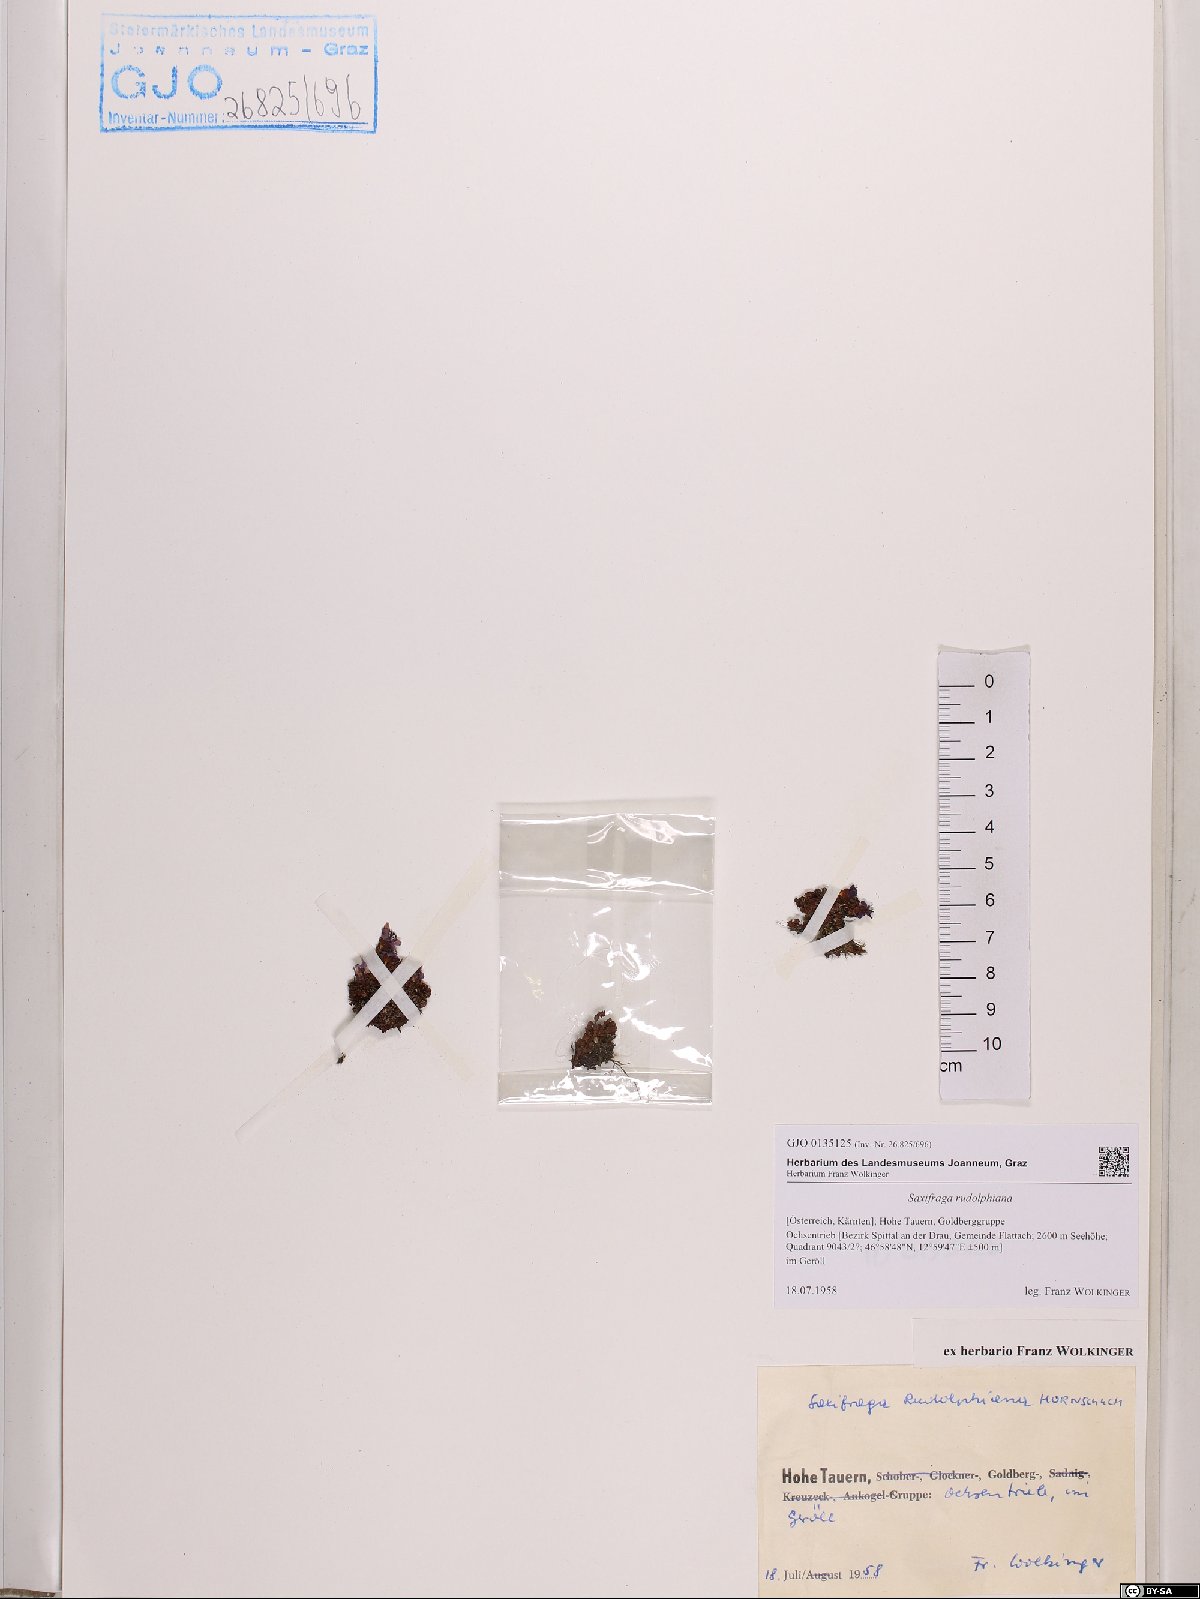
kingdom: Plantae
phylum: Tracheophyta
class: Magnoliopsida
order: Saxifragales
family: Saxifragaceae
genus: Saxifraga
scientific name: Saxifraga oppositifolia
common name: Purple saxifrage
